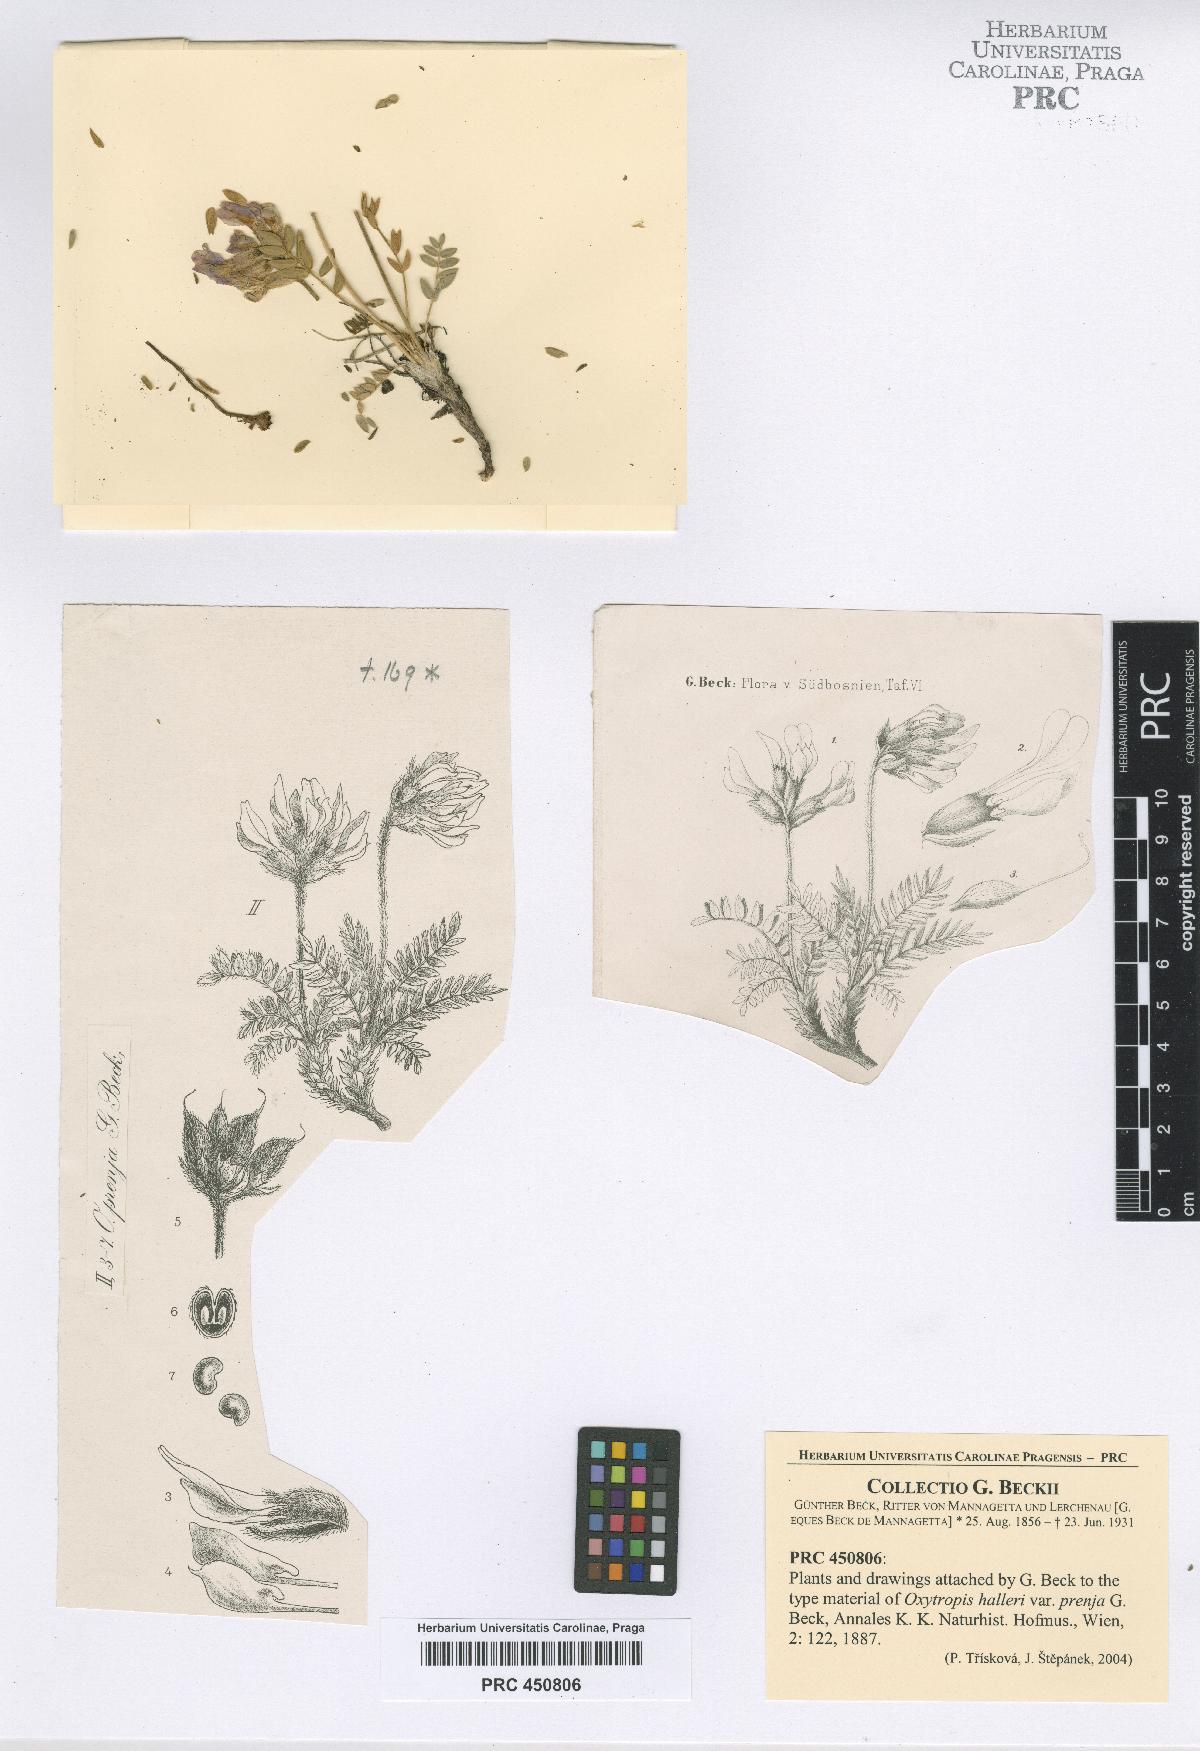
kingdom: Plantae
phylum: Tracheophyta
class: Magnoliopsida
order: Fabales
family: Fabaceae
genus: Oxytropis
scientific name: Oxytropis prenja
